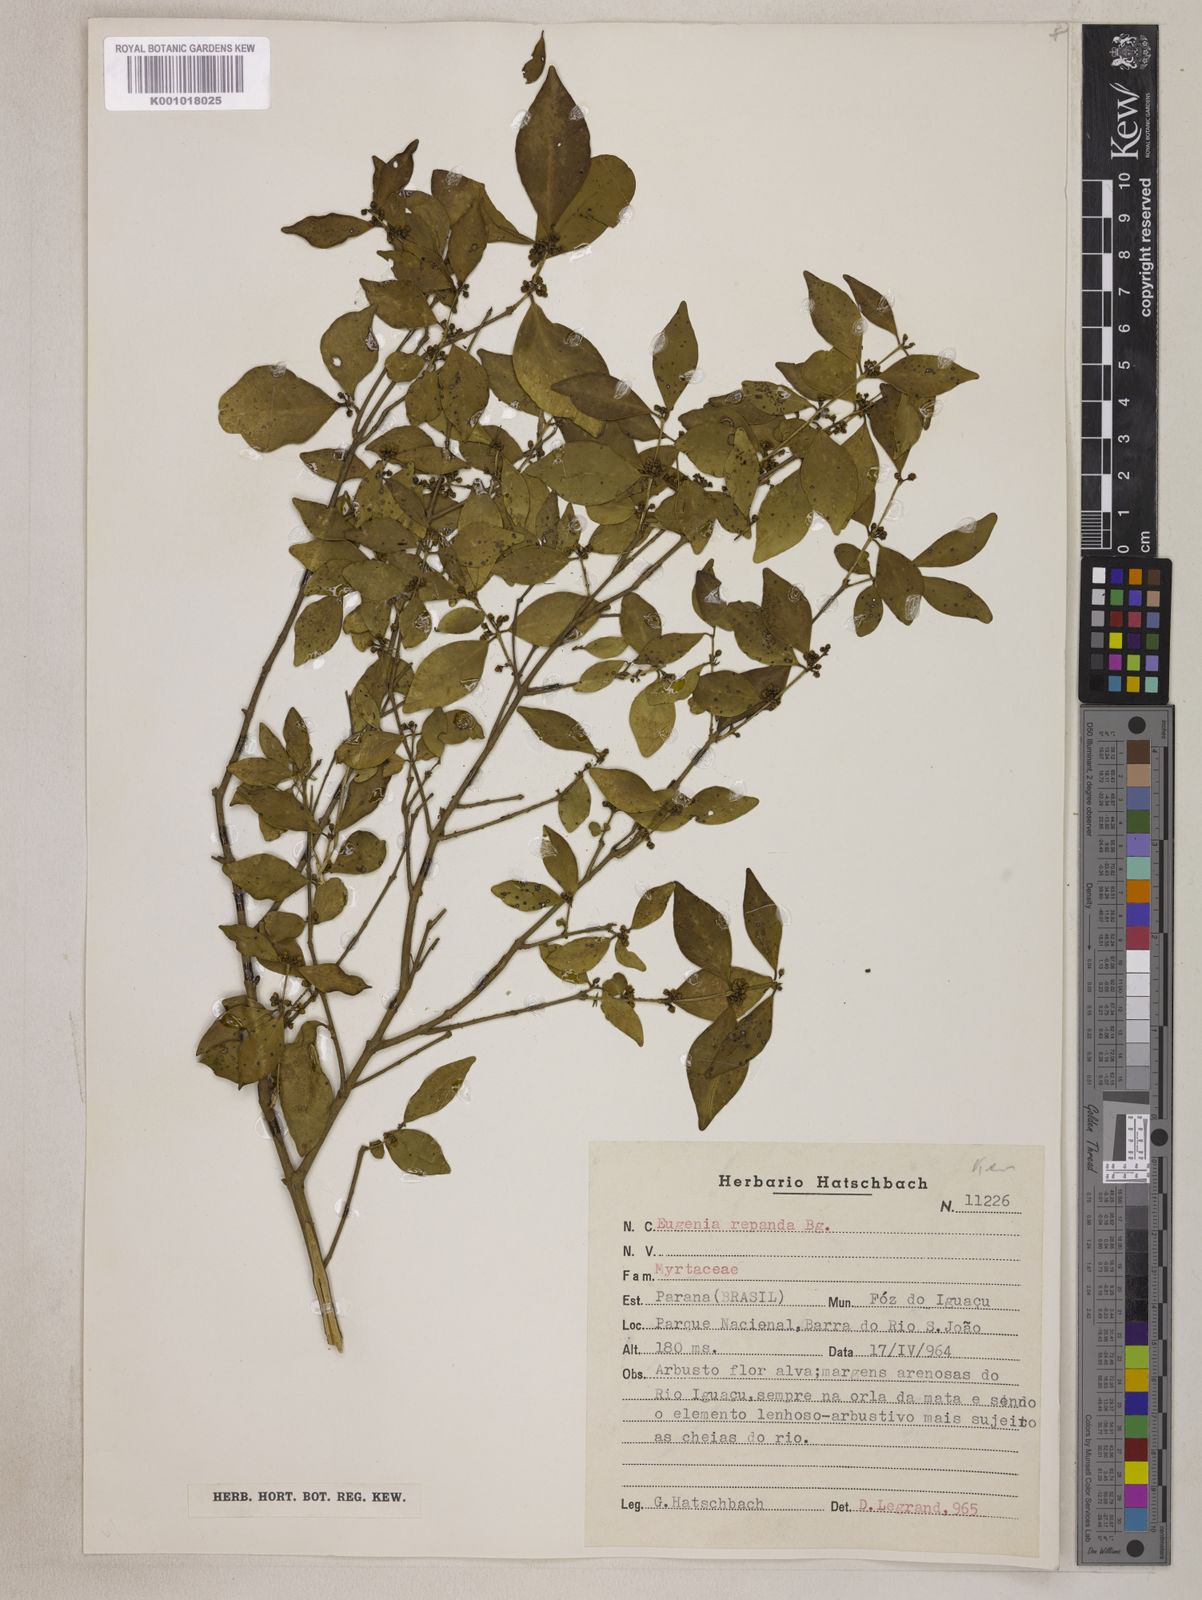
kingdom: Plantae
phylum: Tracheophyta
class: Magnoliopsida
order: Myrtales
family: Myrtaceae
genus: Eugenia
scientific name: Eugenia repanda
